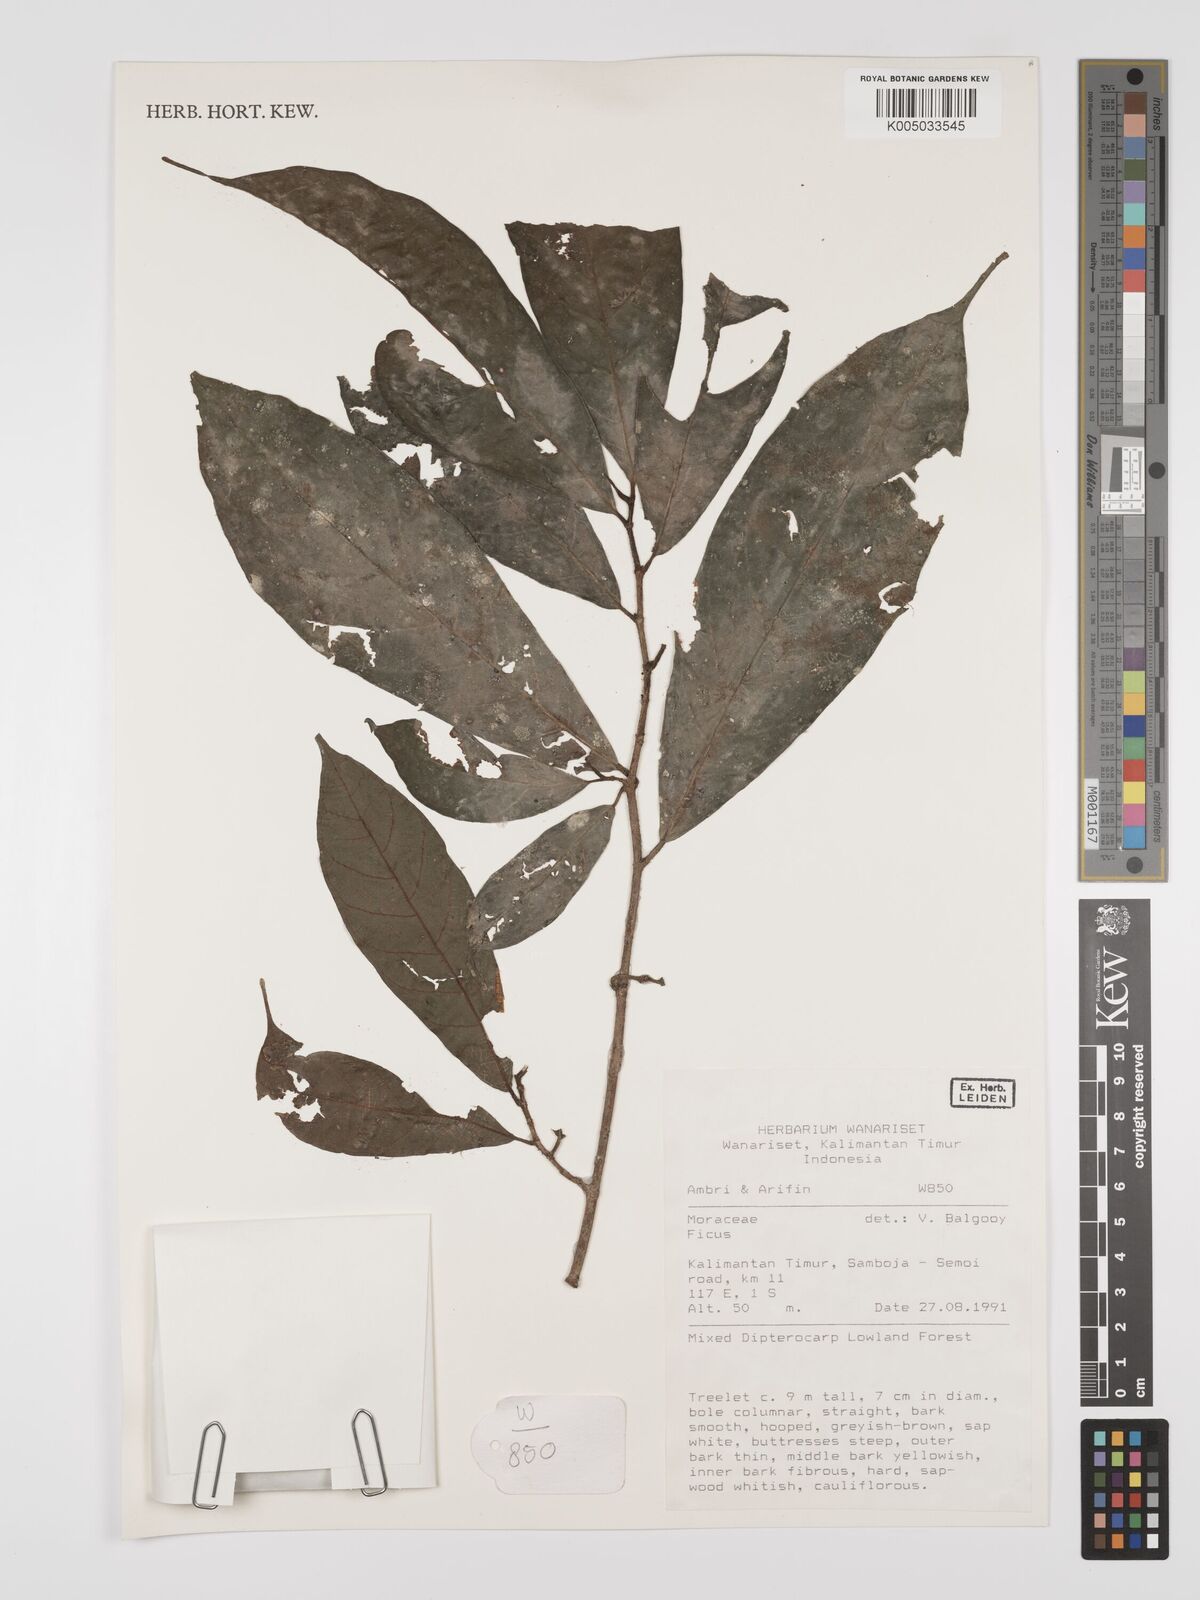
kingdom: Plantae
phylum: Tracheophyta
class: Magnoliopsida
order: Rosales
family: Moraceae
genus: Ficus
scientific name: Ficus
